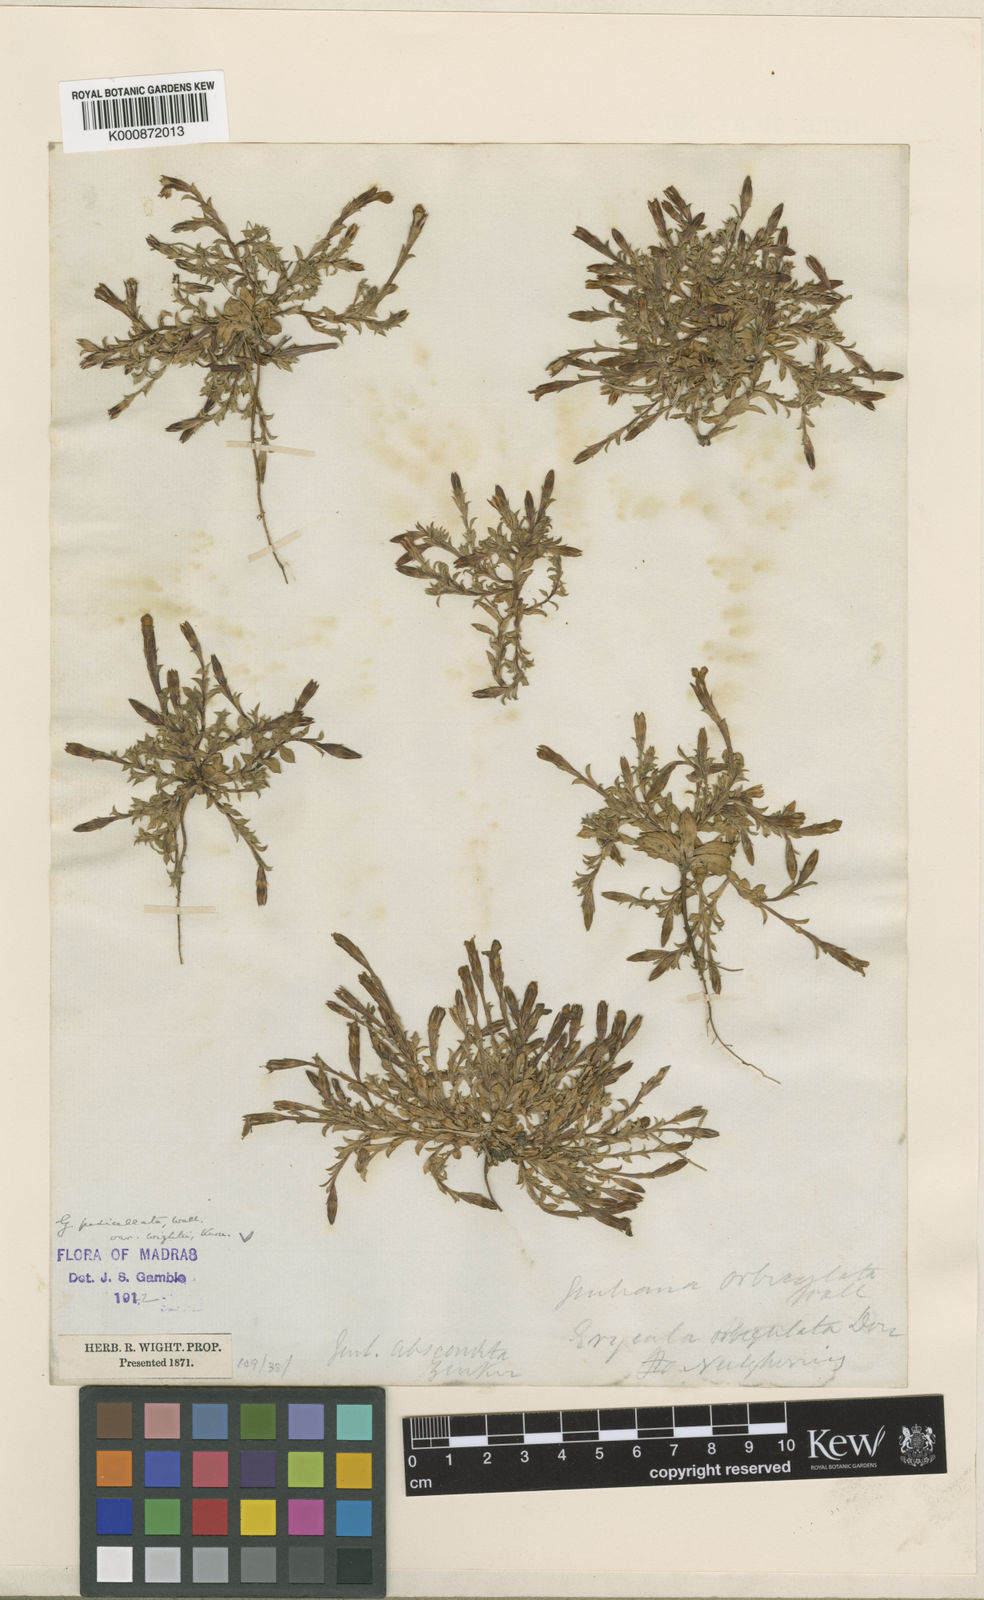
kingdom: Plantae
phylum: Tracheophyta
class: Magnoliopsida
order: Gentianales
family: Gentianaceae
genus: Gentiana
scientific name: Gentiana quadrifaria
